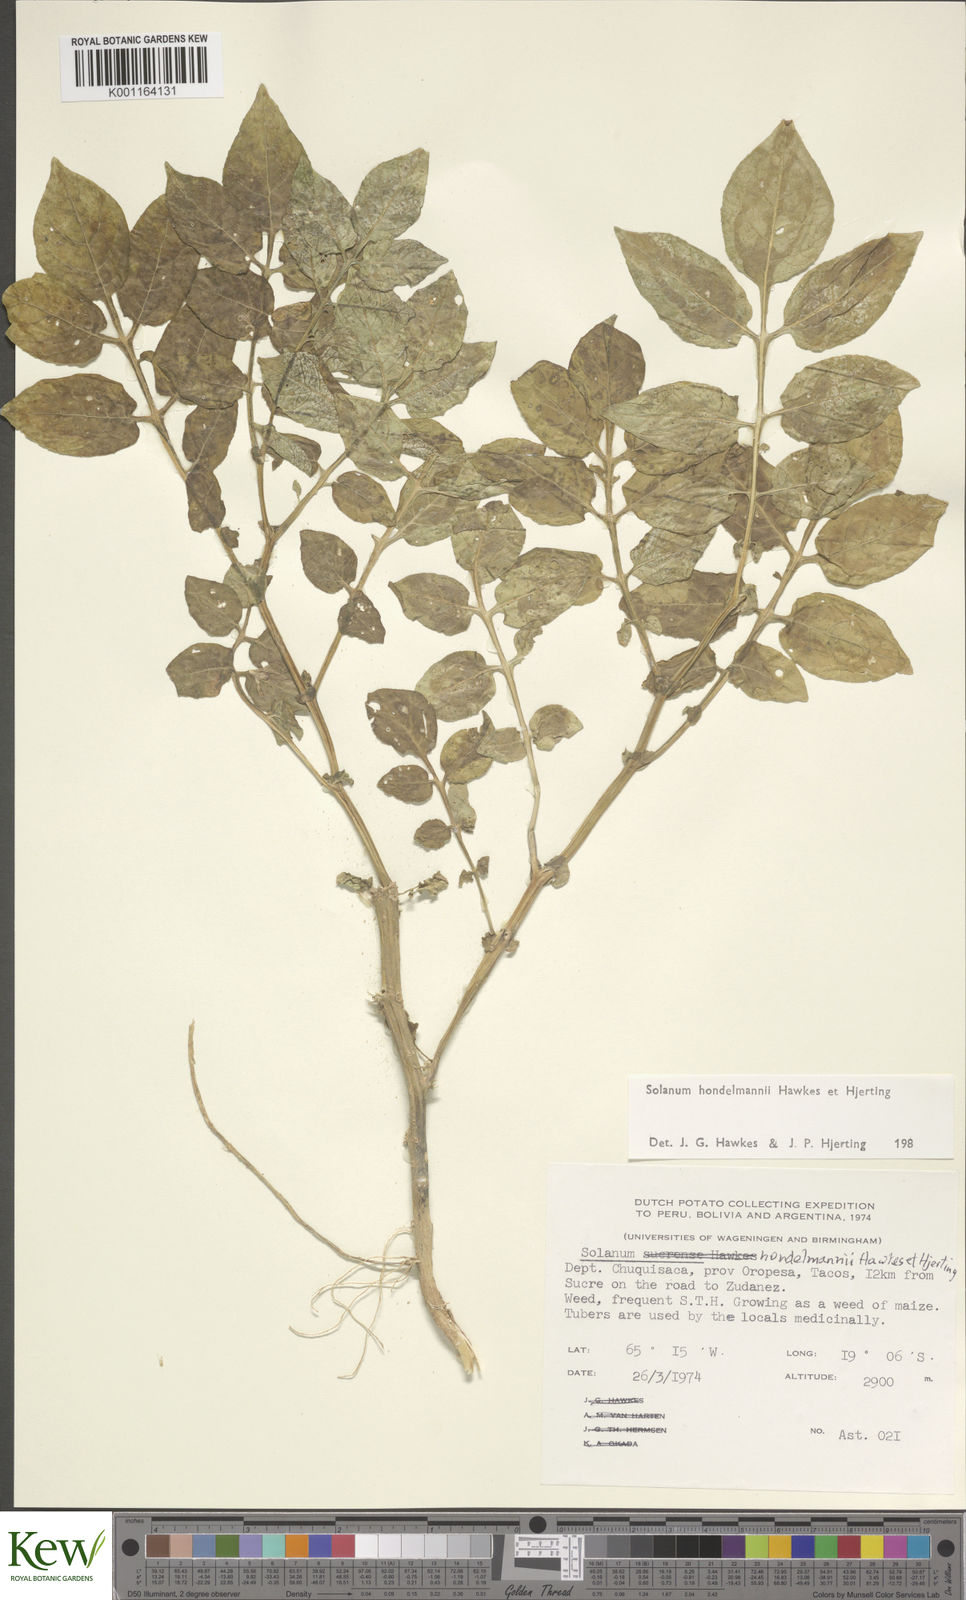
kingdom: Plantae
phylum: Tracheophyta
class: Magnoliopsida
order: Solanales
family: Solanaceae
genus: Solanum
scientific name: Solanum brevicaule
